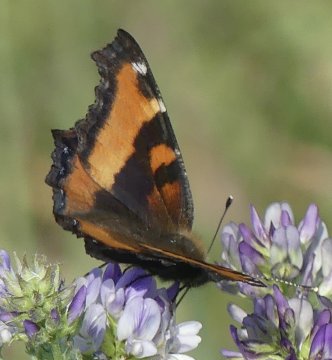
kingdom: Animalia
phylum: Arthropoda
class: Insecta
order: Lepidoptera
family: Nymphalidae
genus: Aglais
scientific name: Aglais milberti
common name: Milbert's Tortoiseshell
